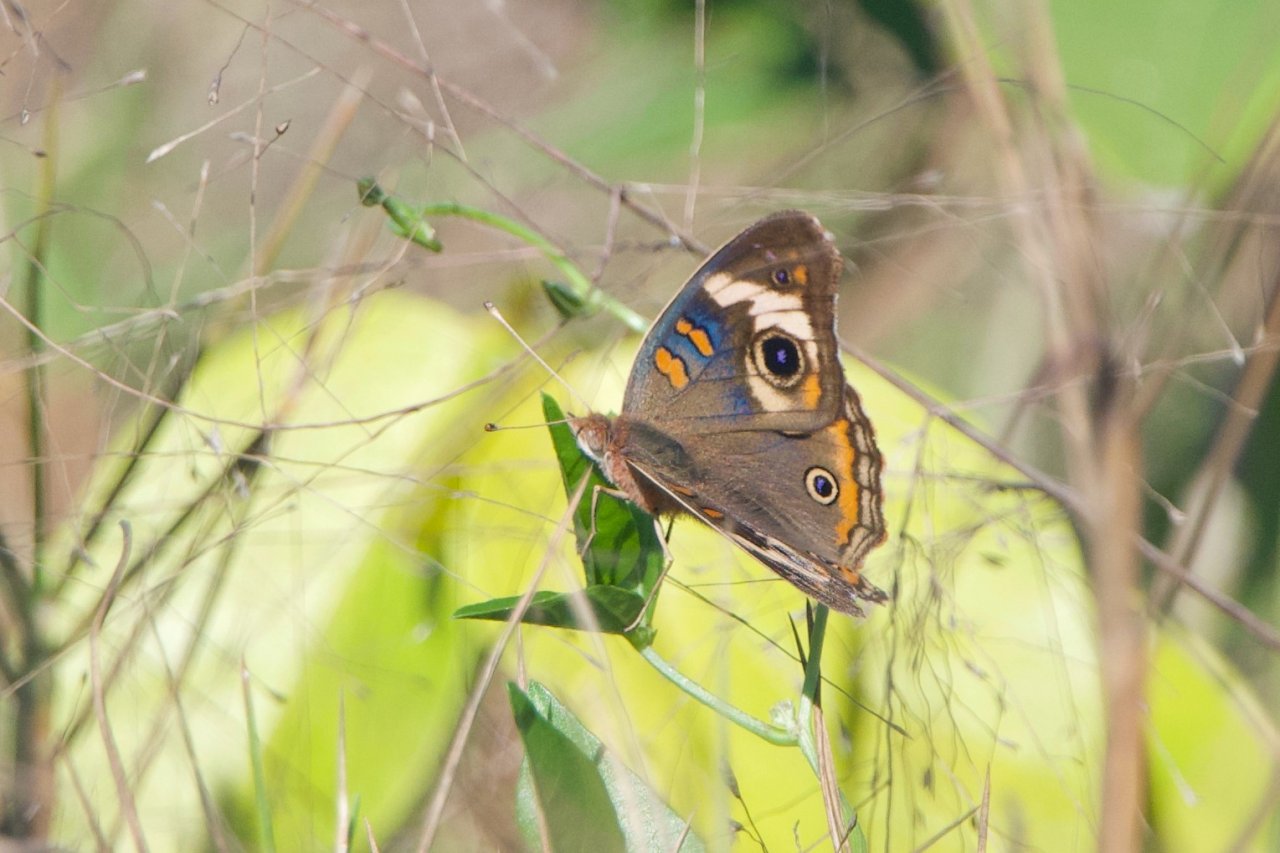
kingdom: Animalia
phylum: Arthropoda
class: Insecta
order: Lepidoptera
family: Nymphalidae
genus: Junonia
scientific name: Junonia coenia
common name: Common Buckeye
